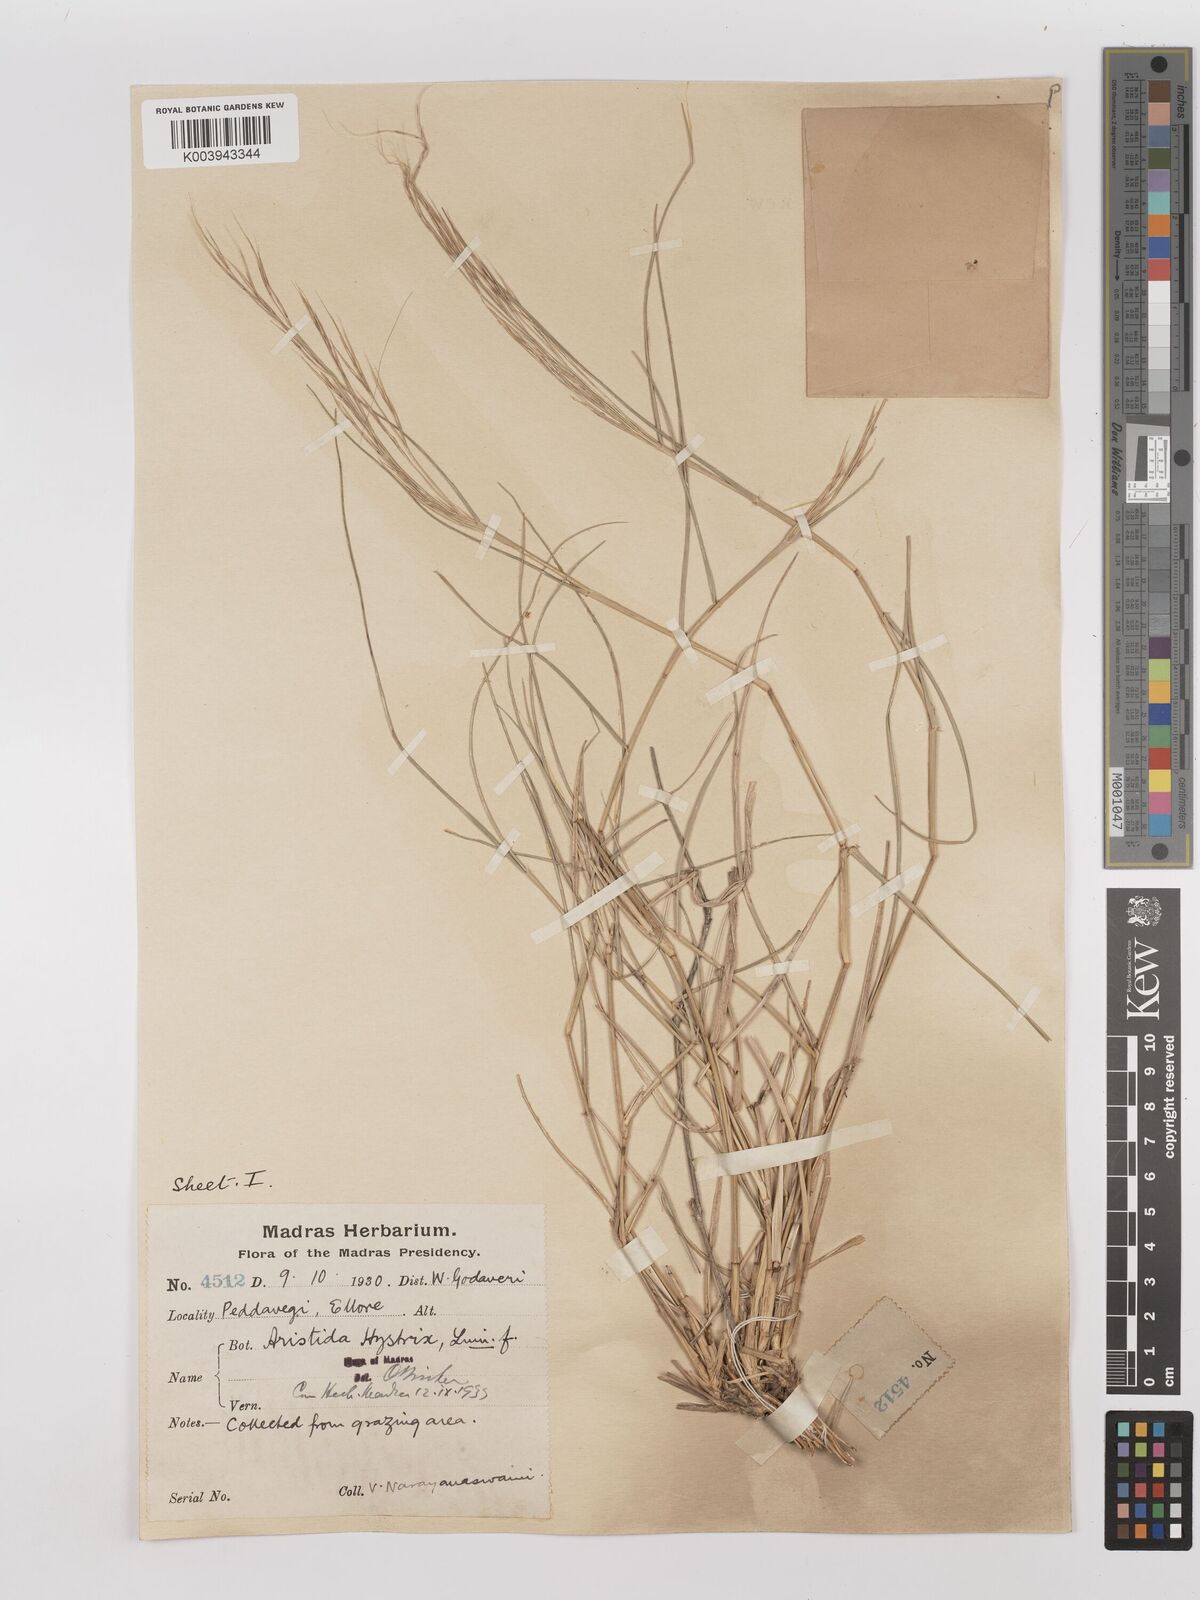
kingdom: Plantae
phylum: Tracheophyta
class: Liliopsida
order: Poales
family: Poaceae
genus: Aristida
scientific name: Aristida hystrix
